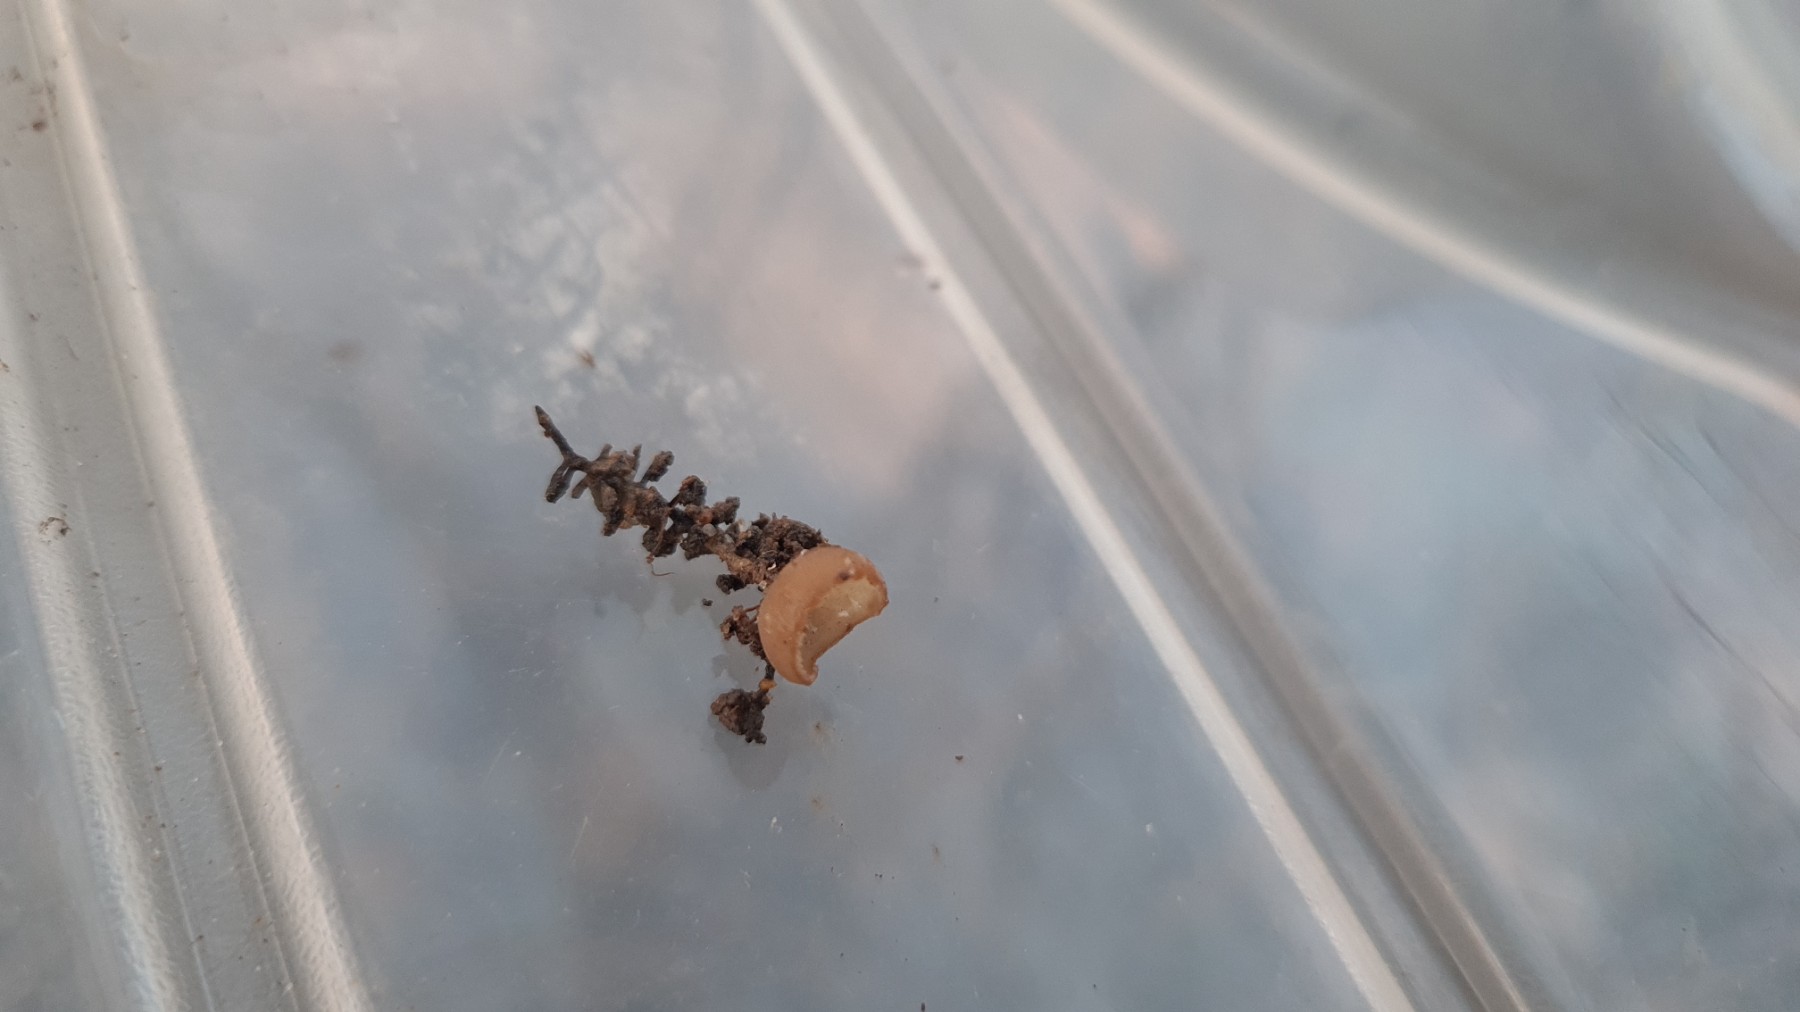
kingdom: Fungi
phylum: Ascomycota
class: Leotiomycetes
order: Helotiales
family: Sclerotiniaceae
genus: Ciboria
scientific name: Ciboria amentacea
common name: ellerakle-knoldskive
